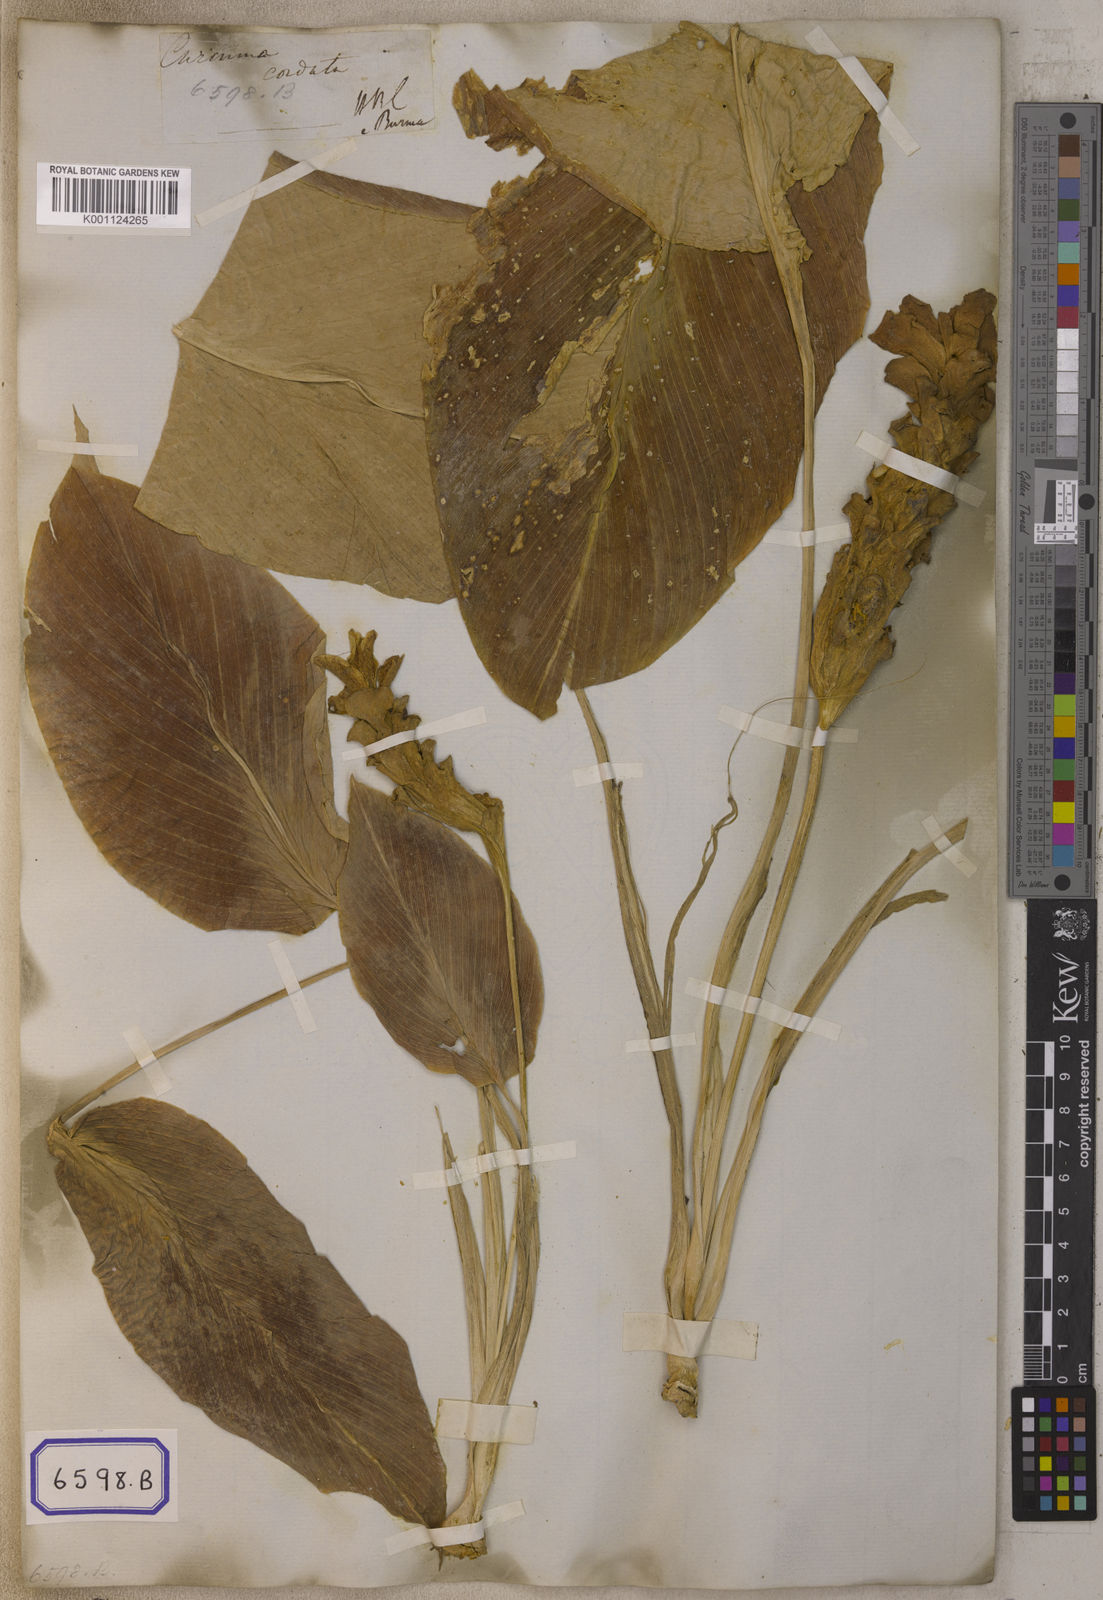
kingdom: Plantae
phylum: Tracheophyta
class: Liliopsida
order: Zingiberales
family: Zingiberaceae
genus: Curcuma
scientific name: Curcuma cordata
